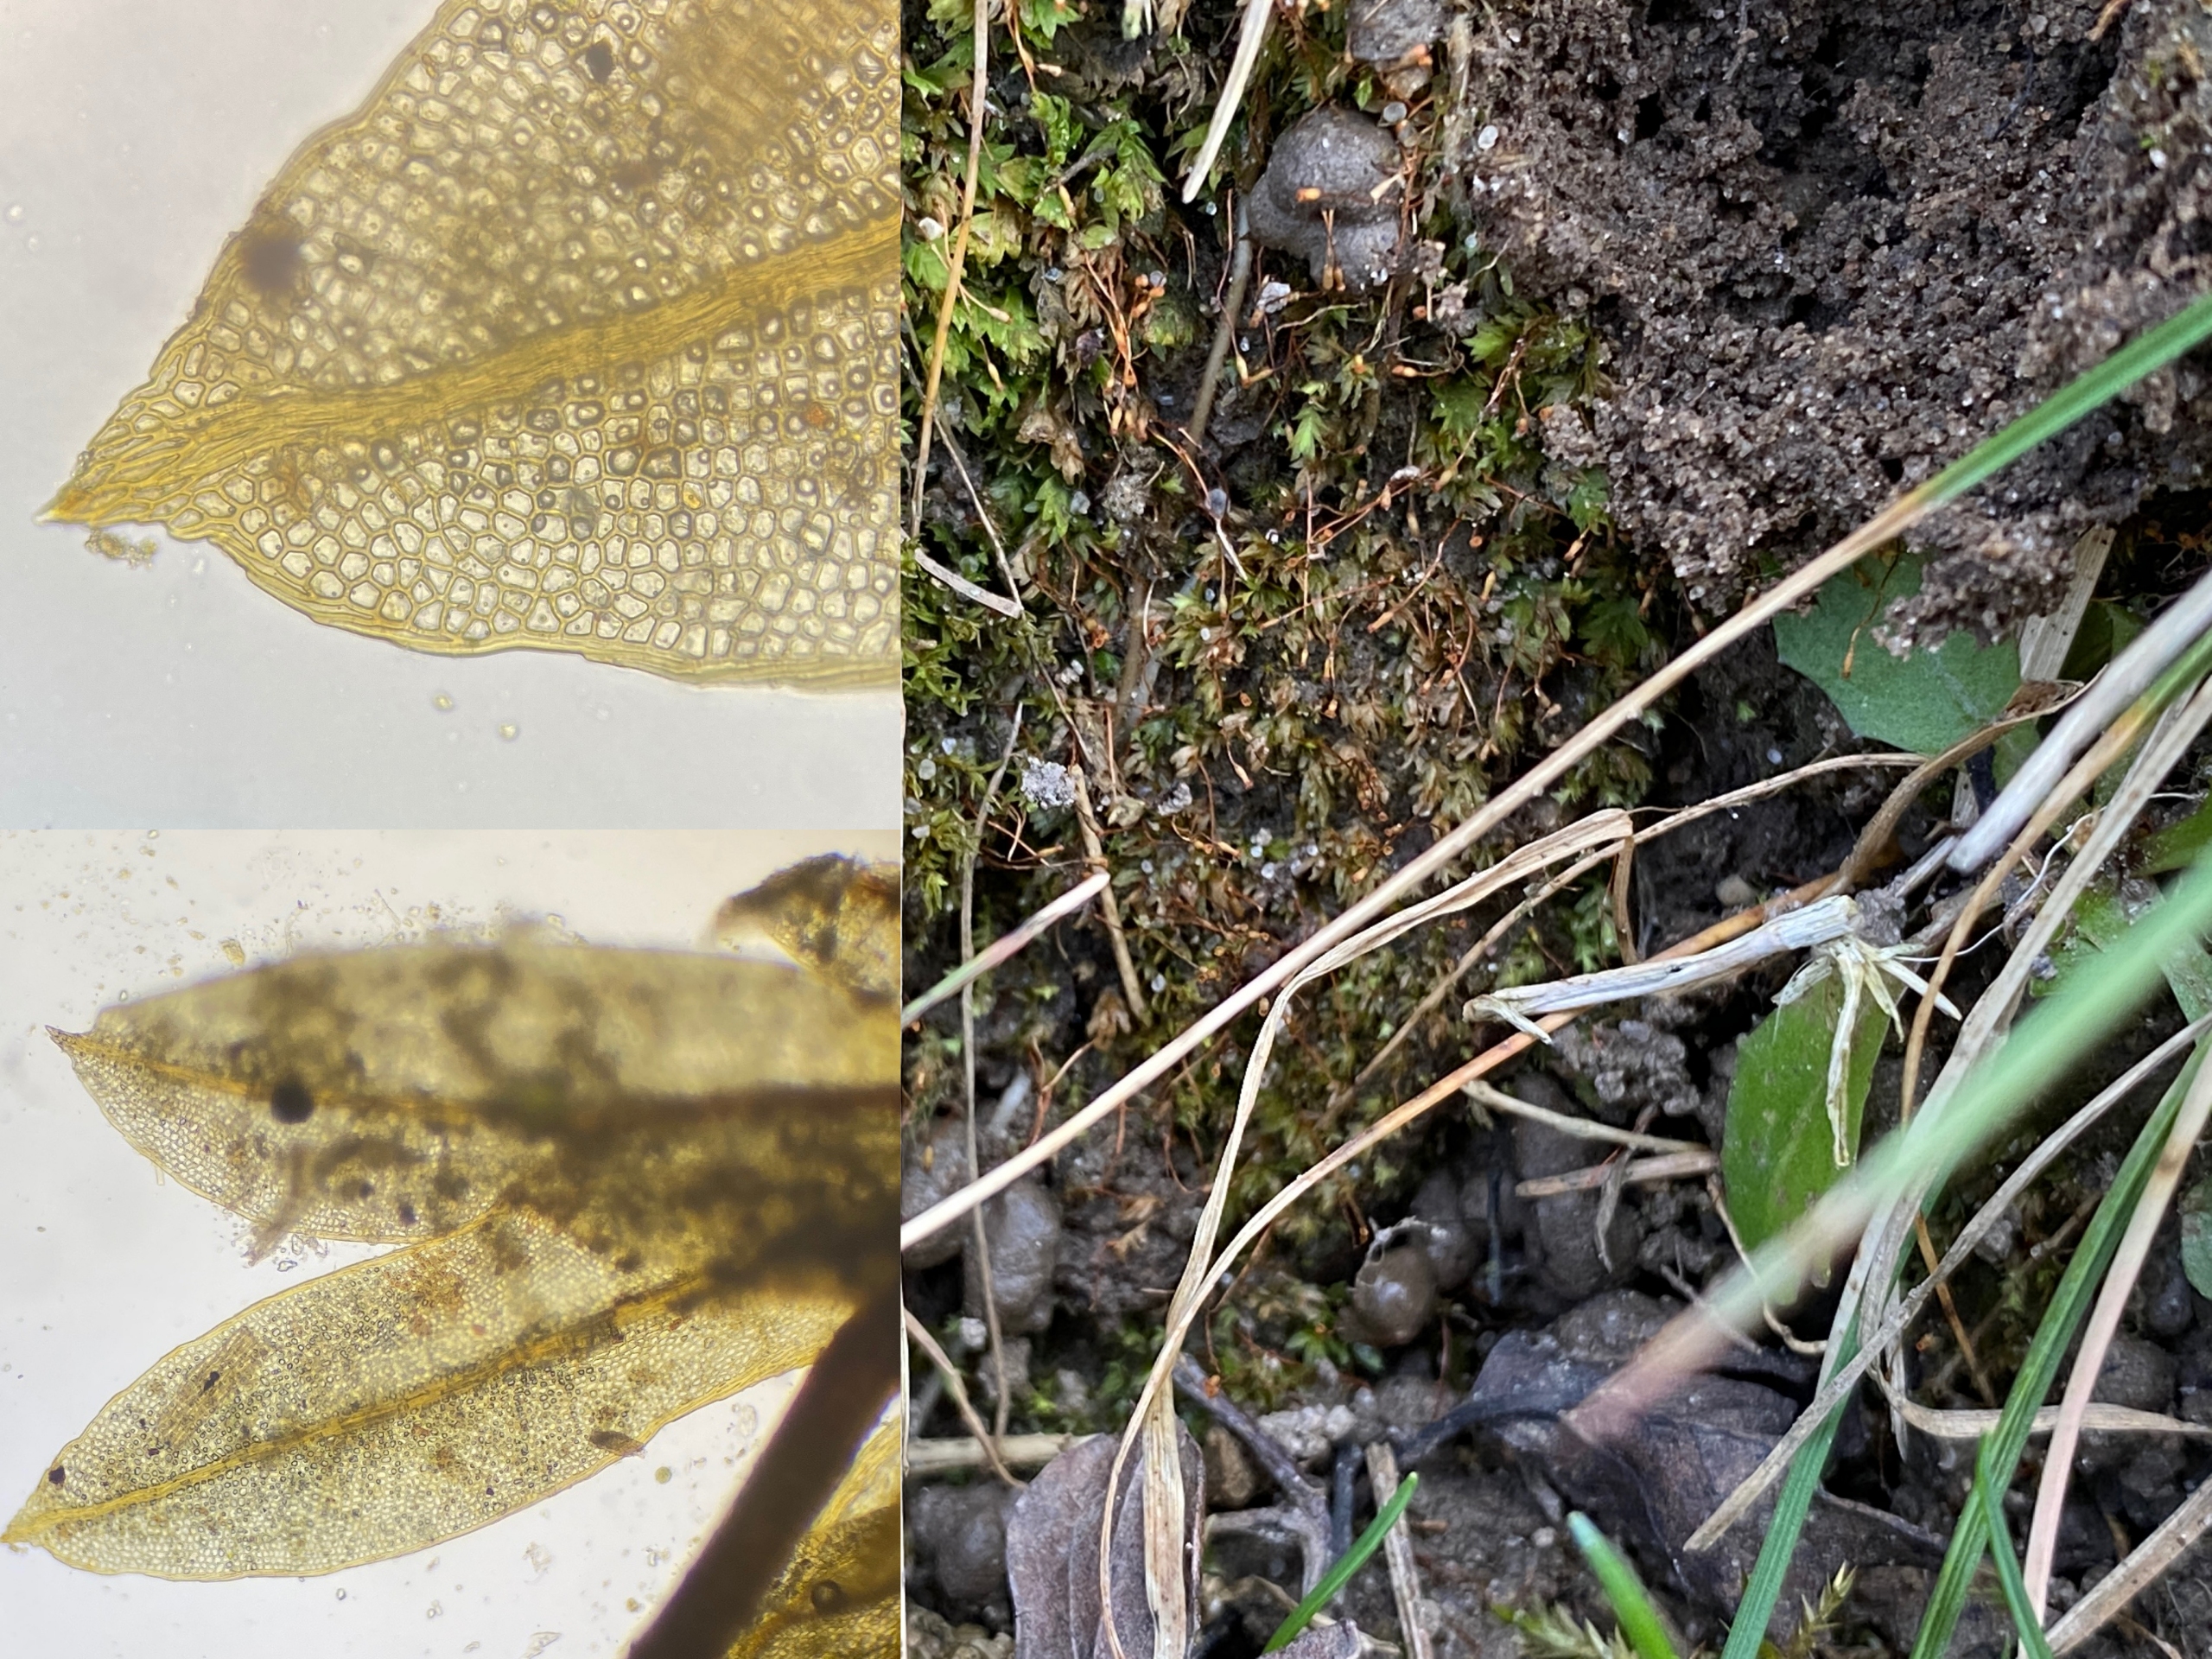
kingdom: Plantae
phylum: Bryophyta
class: Bryopsida
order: Dicranales
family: Fissidentaceae
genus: Fissidens
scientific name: Fissidens bryoides
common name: Top-rademos
